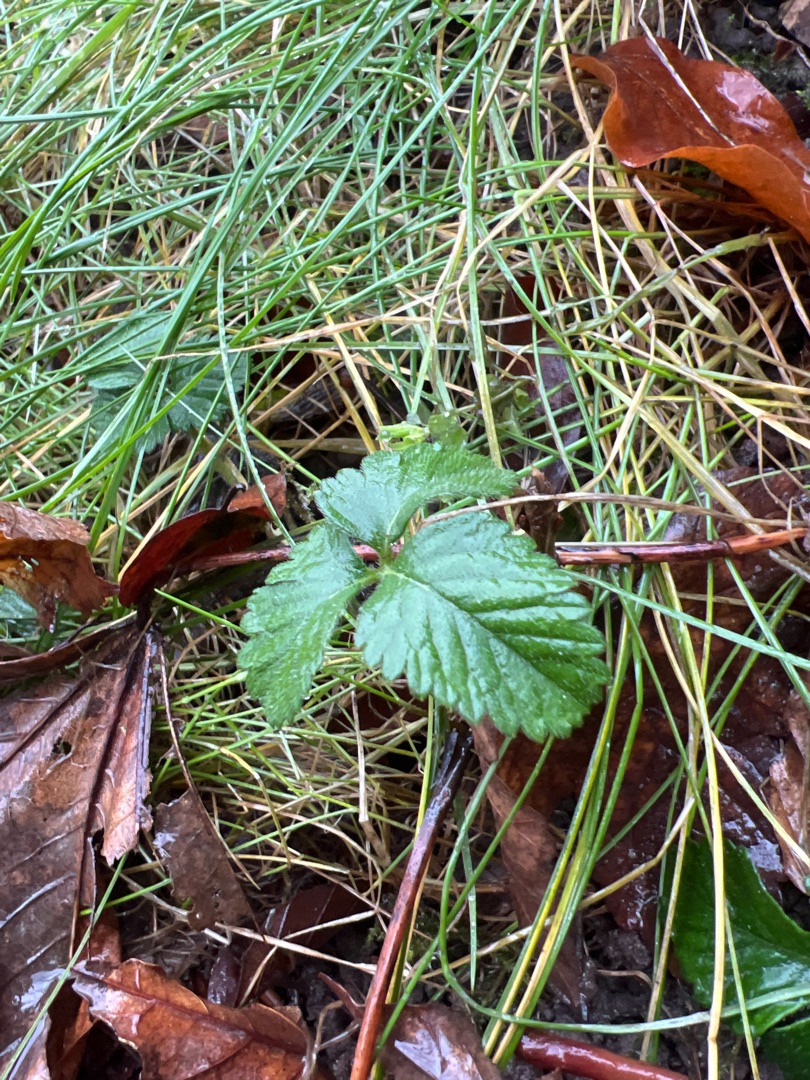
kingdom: Plantae
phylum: Tracheophyta
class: Magnoliopsida
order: Rosales
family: Rosaceae
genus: Fragaria
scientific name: Fragaria vesca
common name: Skov-jordbær
